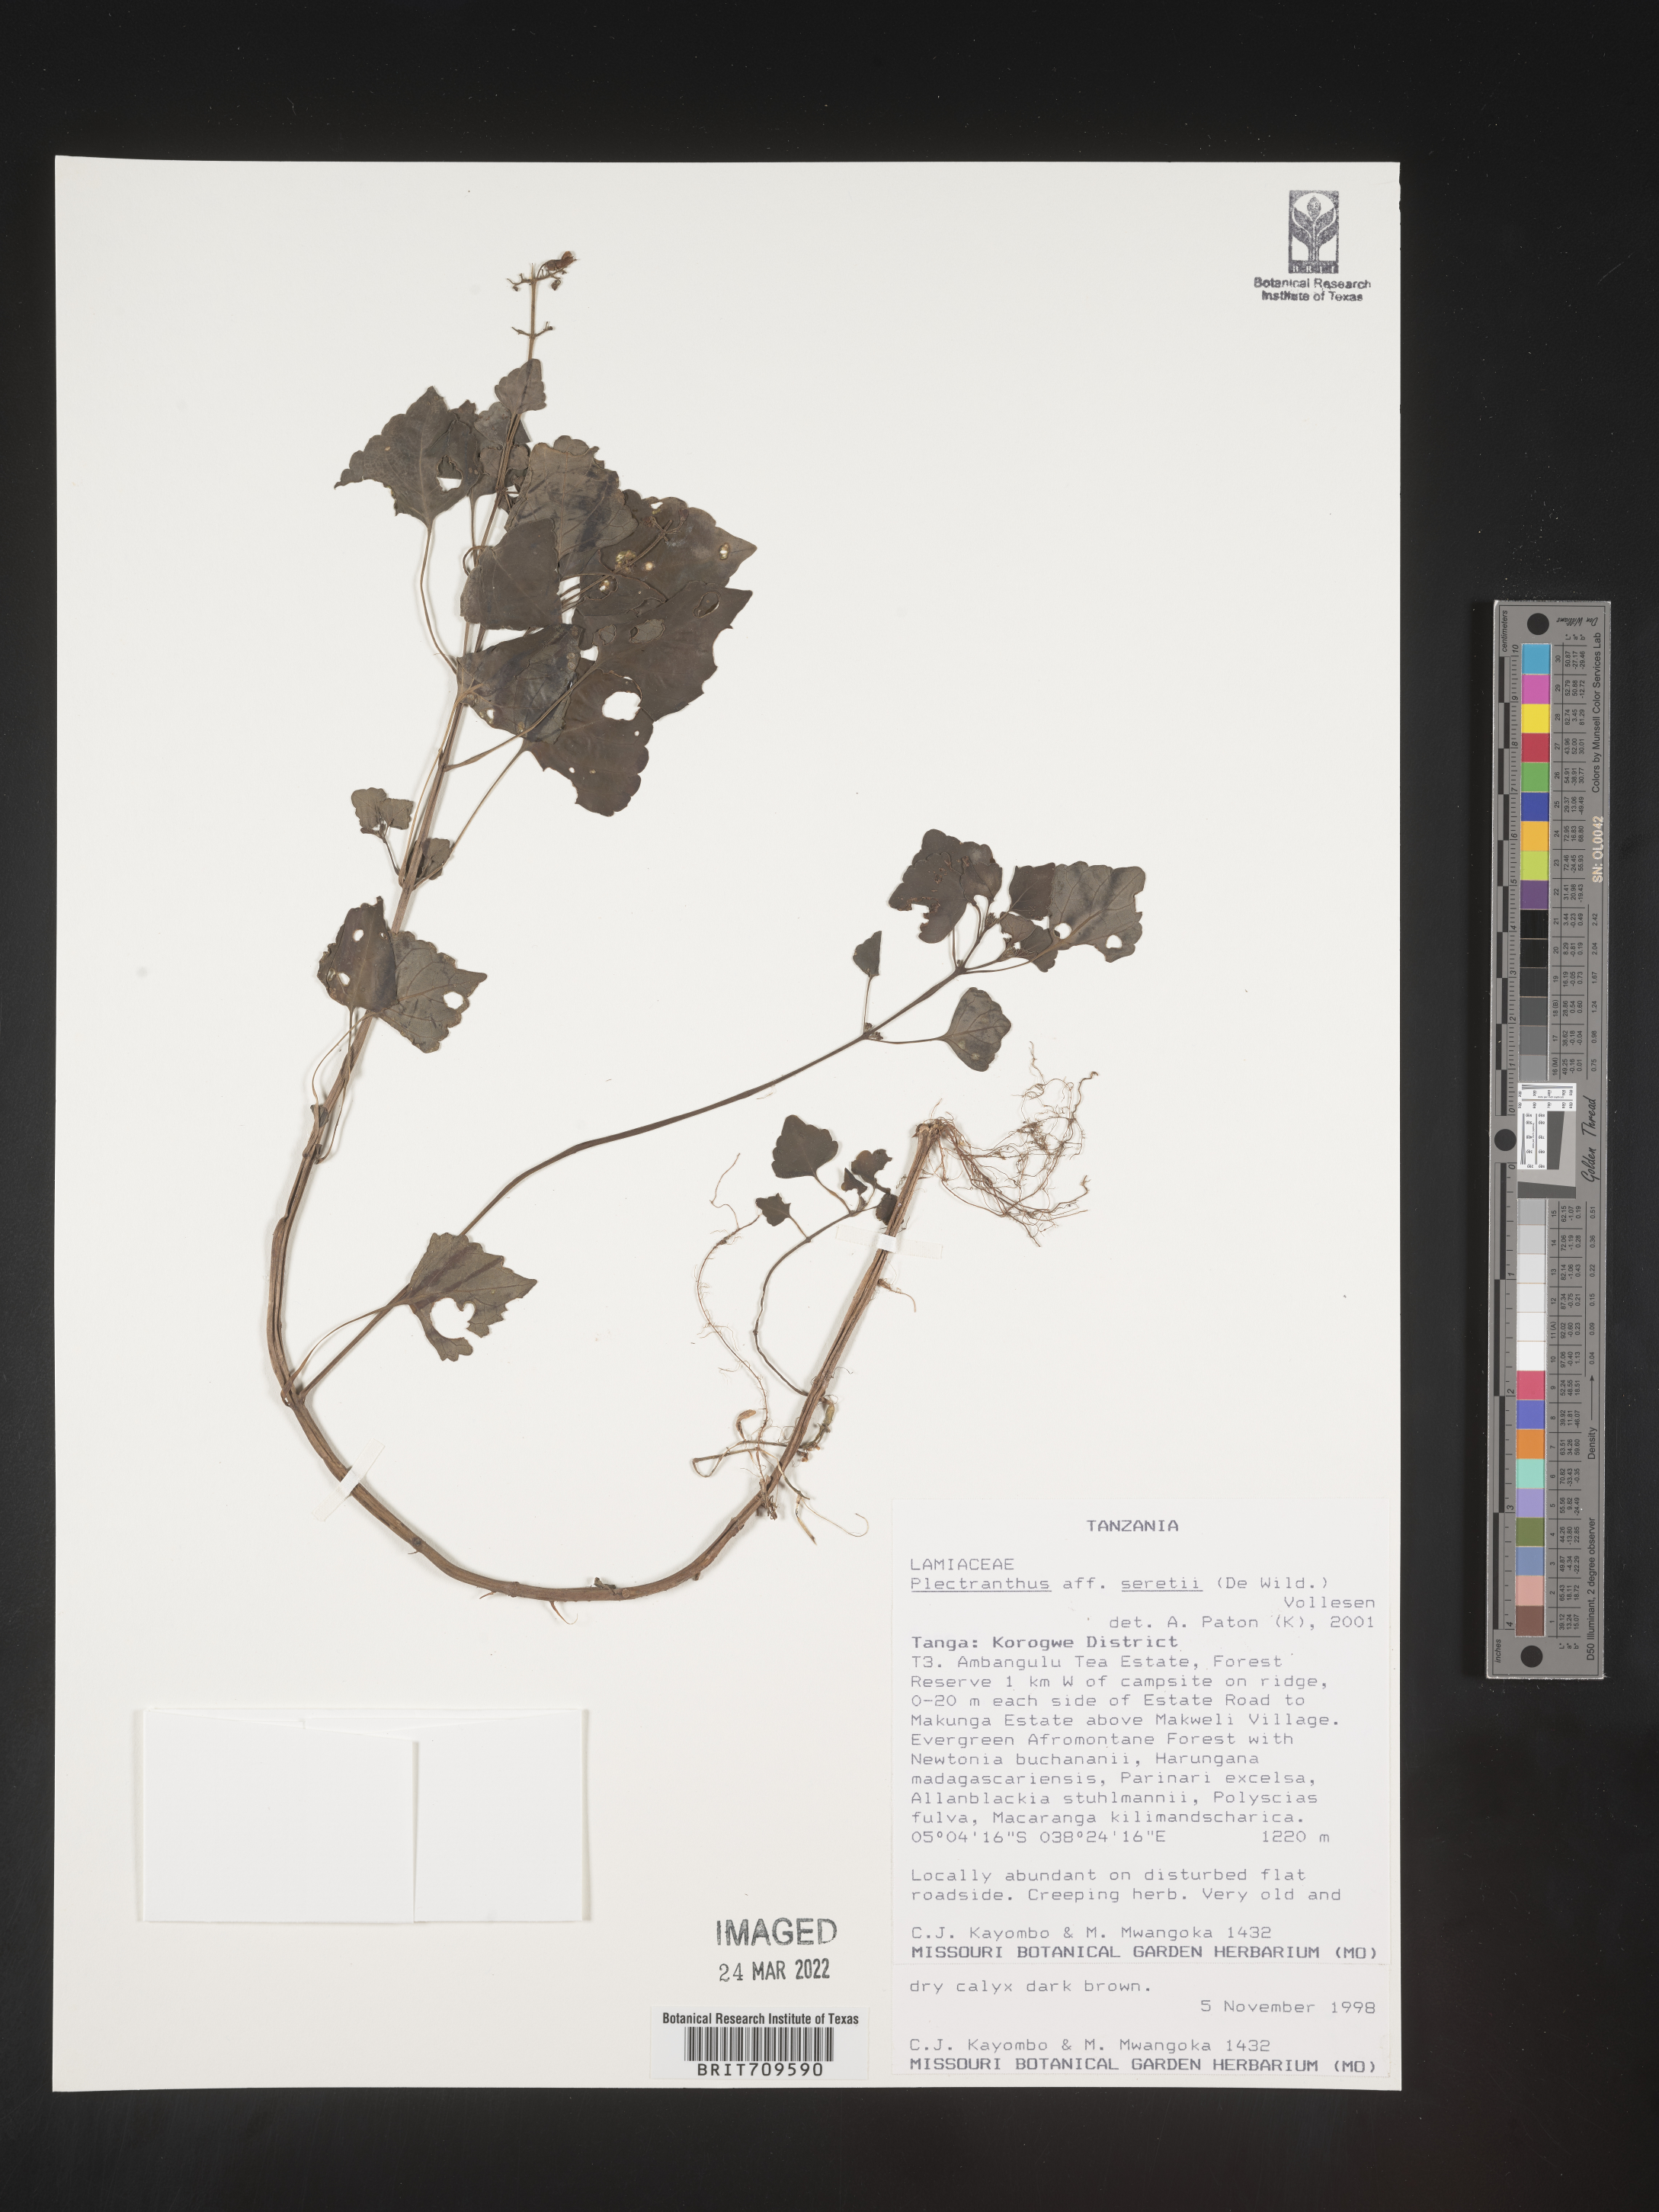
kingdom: Plantae
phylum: Tracheophyta
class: Magnoliopsida
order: Lamiales
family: Lamiaceae
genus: Plectranthus
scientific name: Plectranthus
